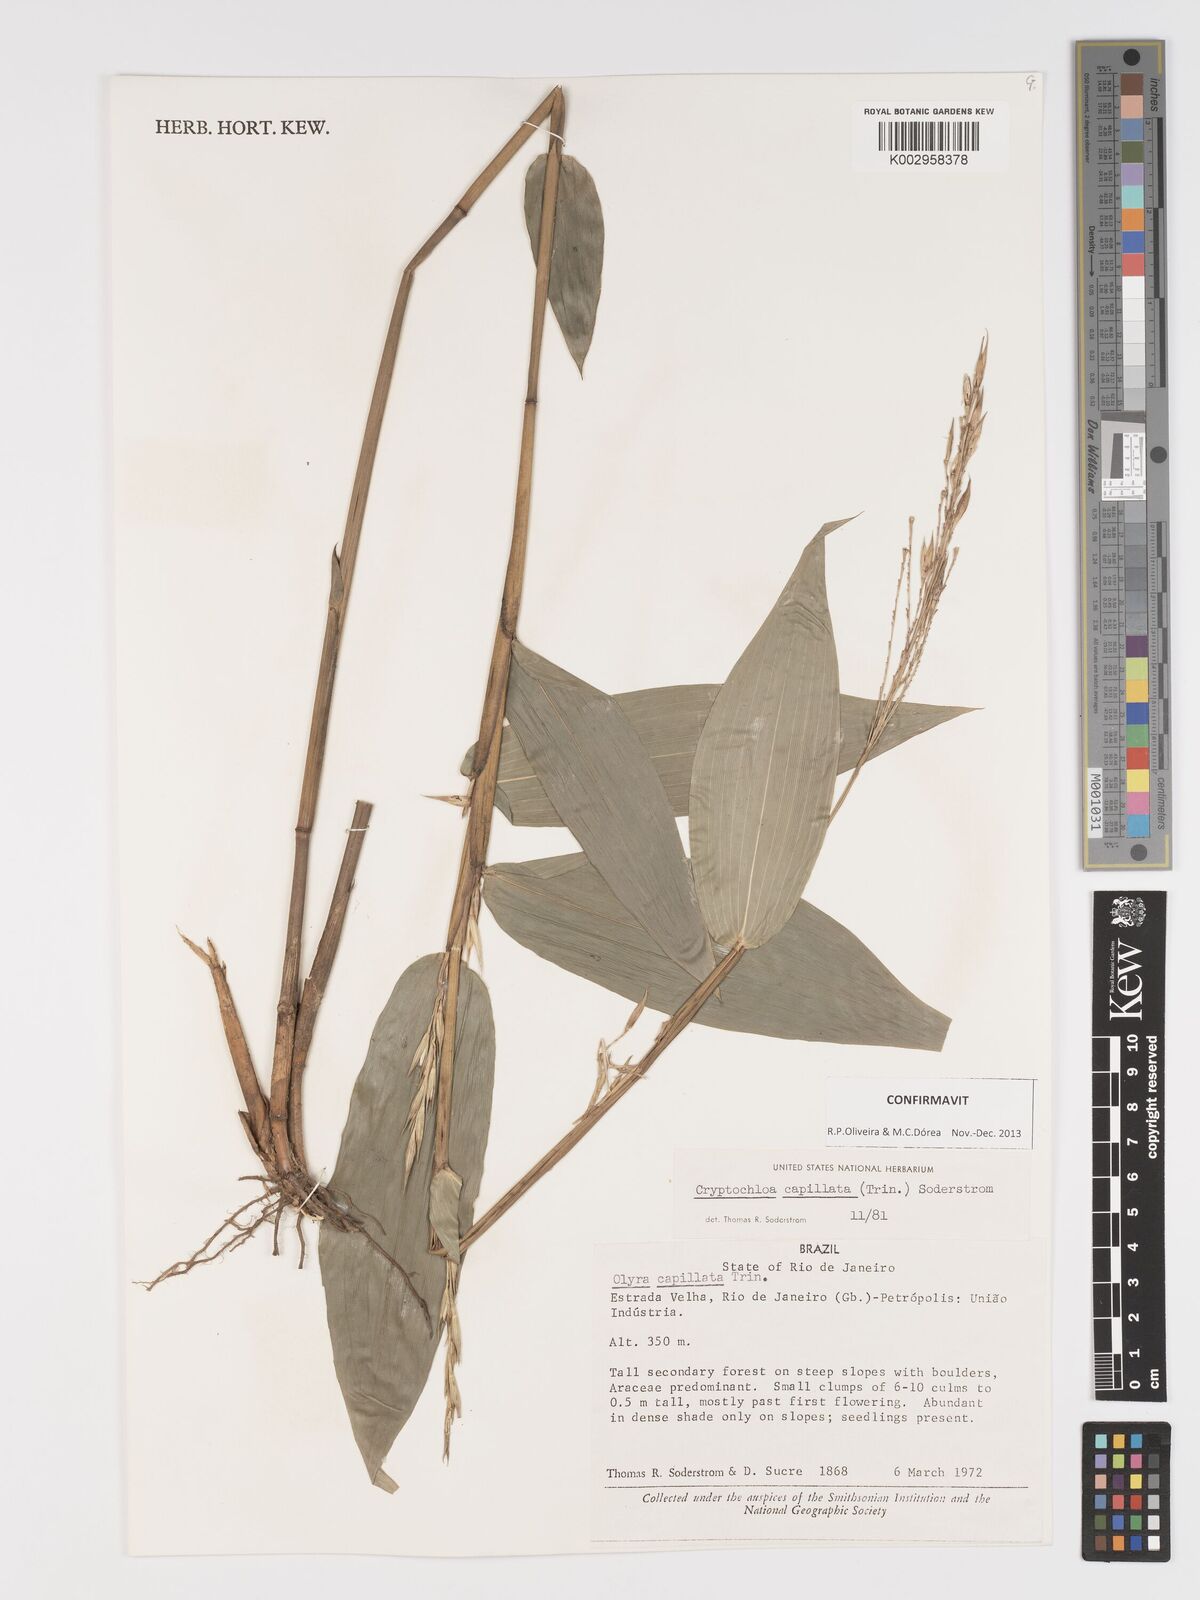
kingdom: Plantae
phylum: Tracheophyta
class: Liliopsida
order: Poales
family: Poaceae
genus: Cryptochloa
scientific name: Cryptochloa capillata
